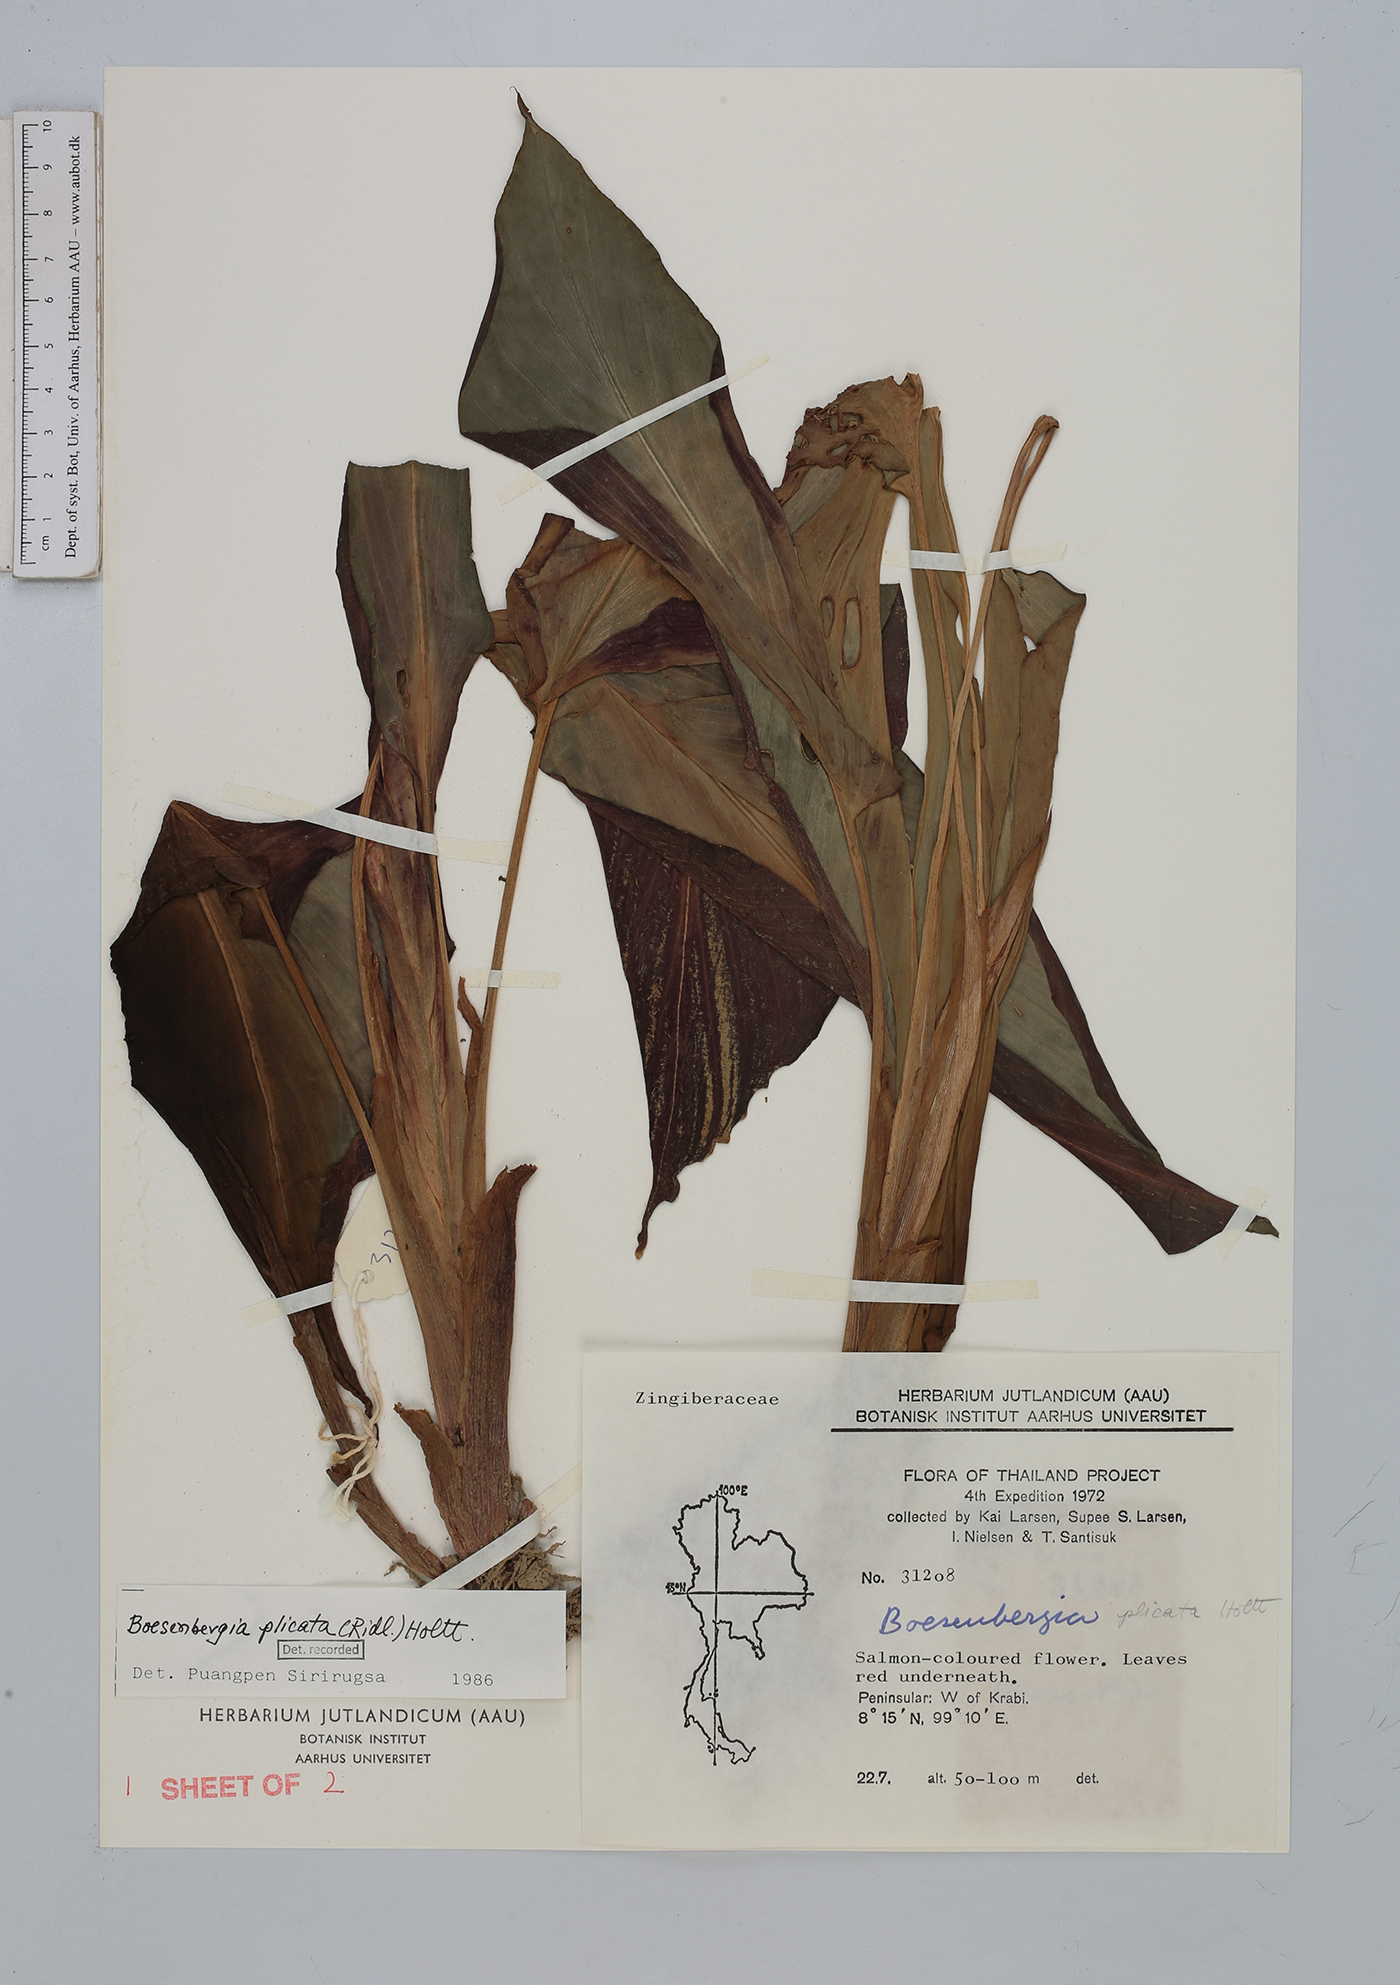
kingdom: Plantae
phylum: Tracheophyta
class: Liliopsida
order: Zingiberales
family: Zingiberaceae
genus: Boesenbergia
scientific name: Boesenbergia plicata
